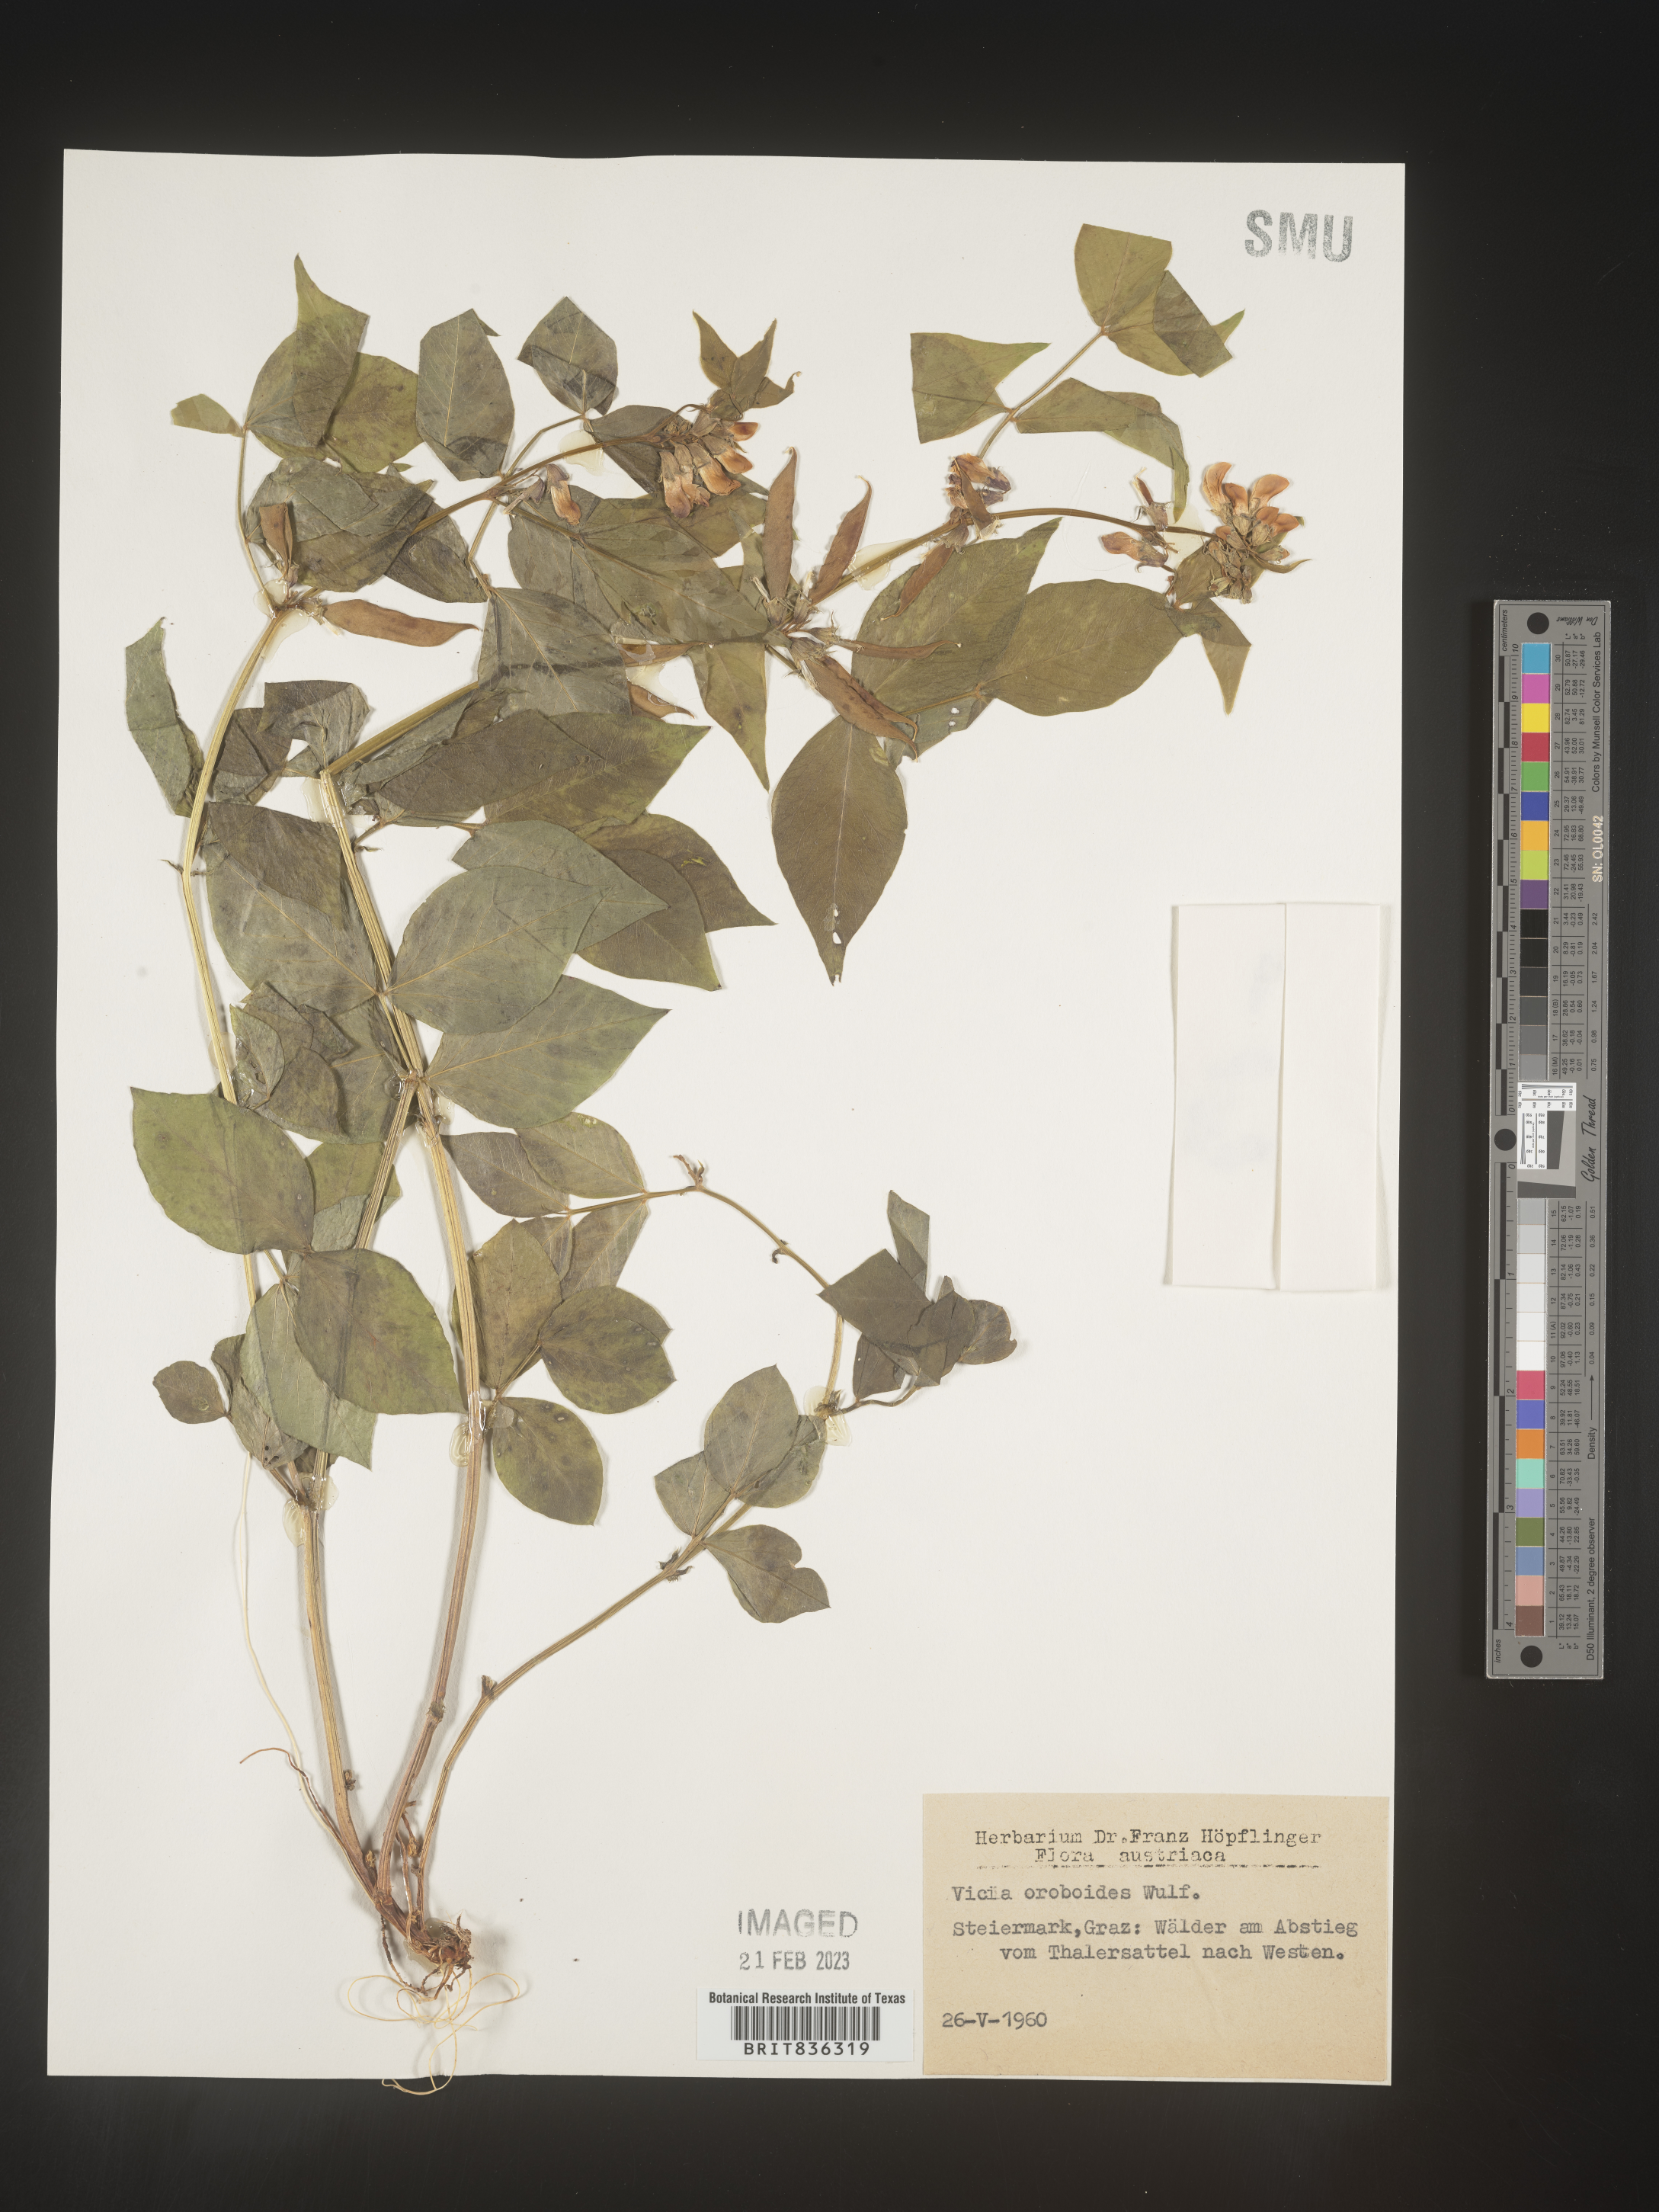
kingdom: Plantae
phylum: Tracheophyta
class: Magnoliopsida
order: Fabales
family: Fabaceae
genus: Vicia
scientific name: Vicia
